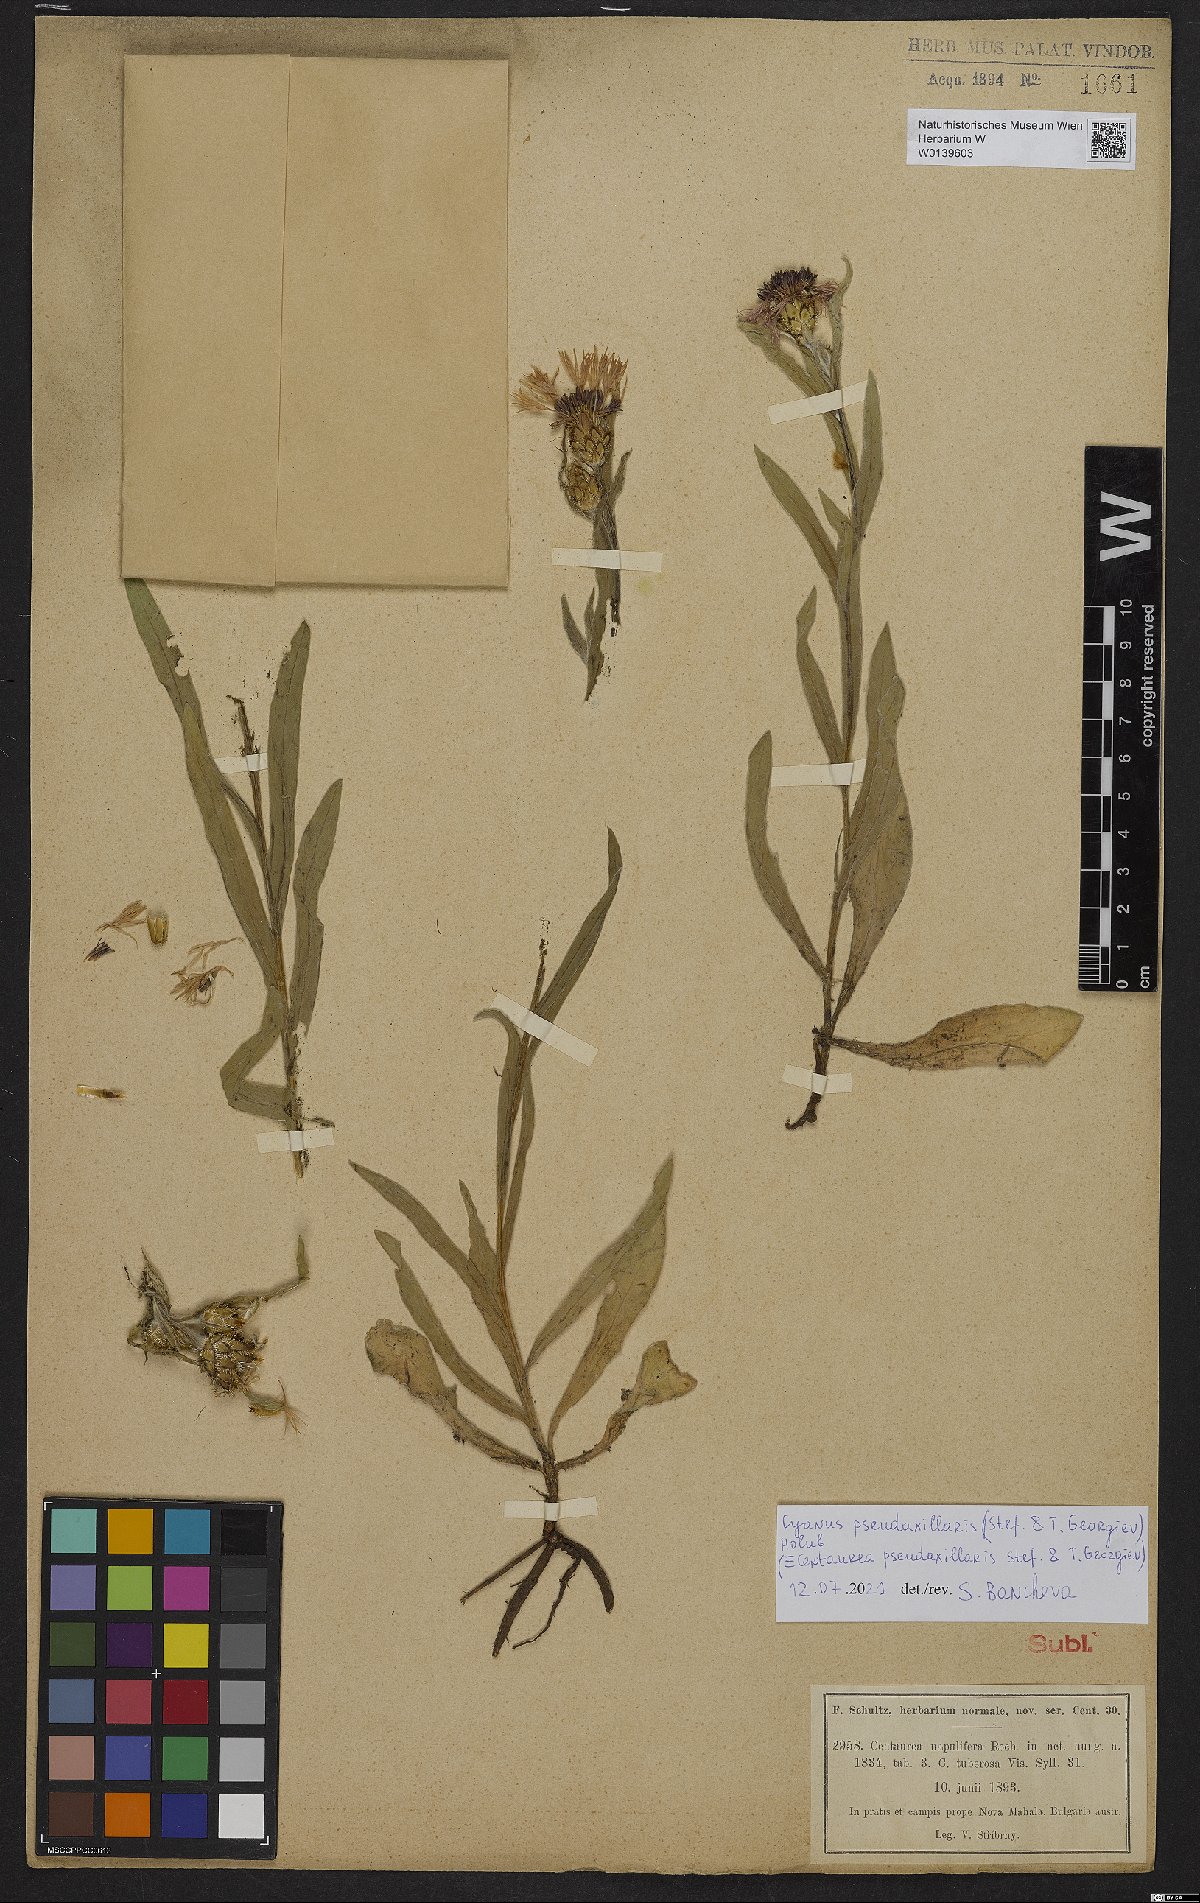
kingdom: Plantae
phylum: Tracheophyta
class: Magnoliopsida
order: Asterales
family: Asteraceae
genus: Centaurea
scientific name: Centaurea pseudoaxillaris
